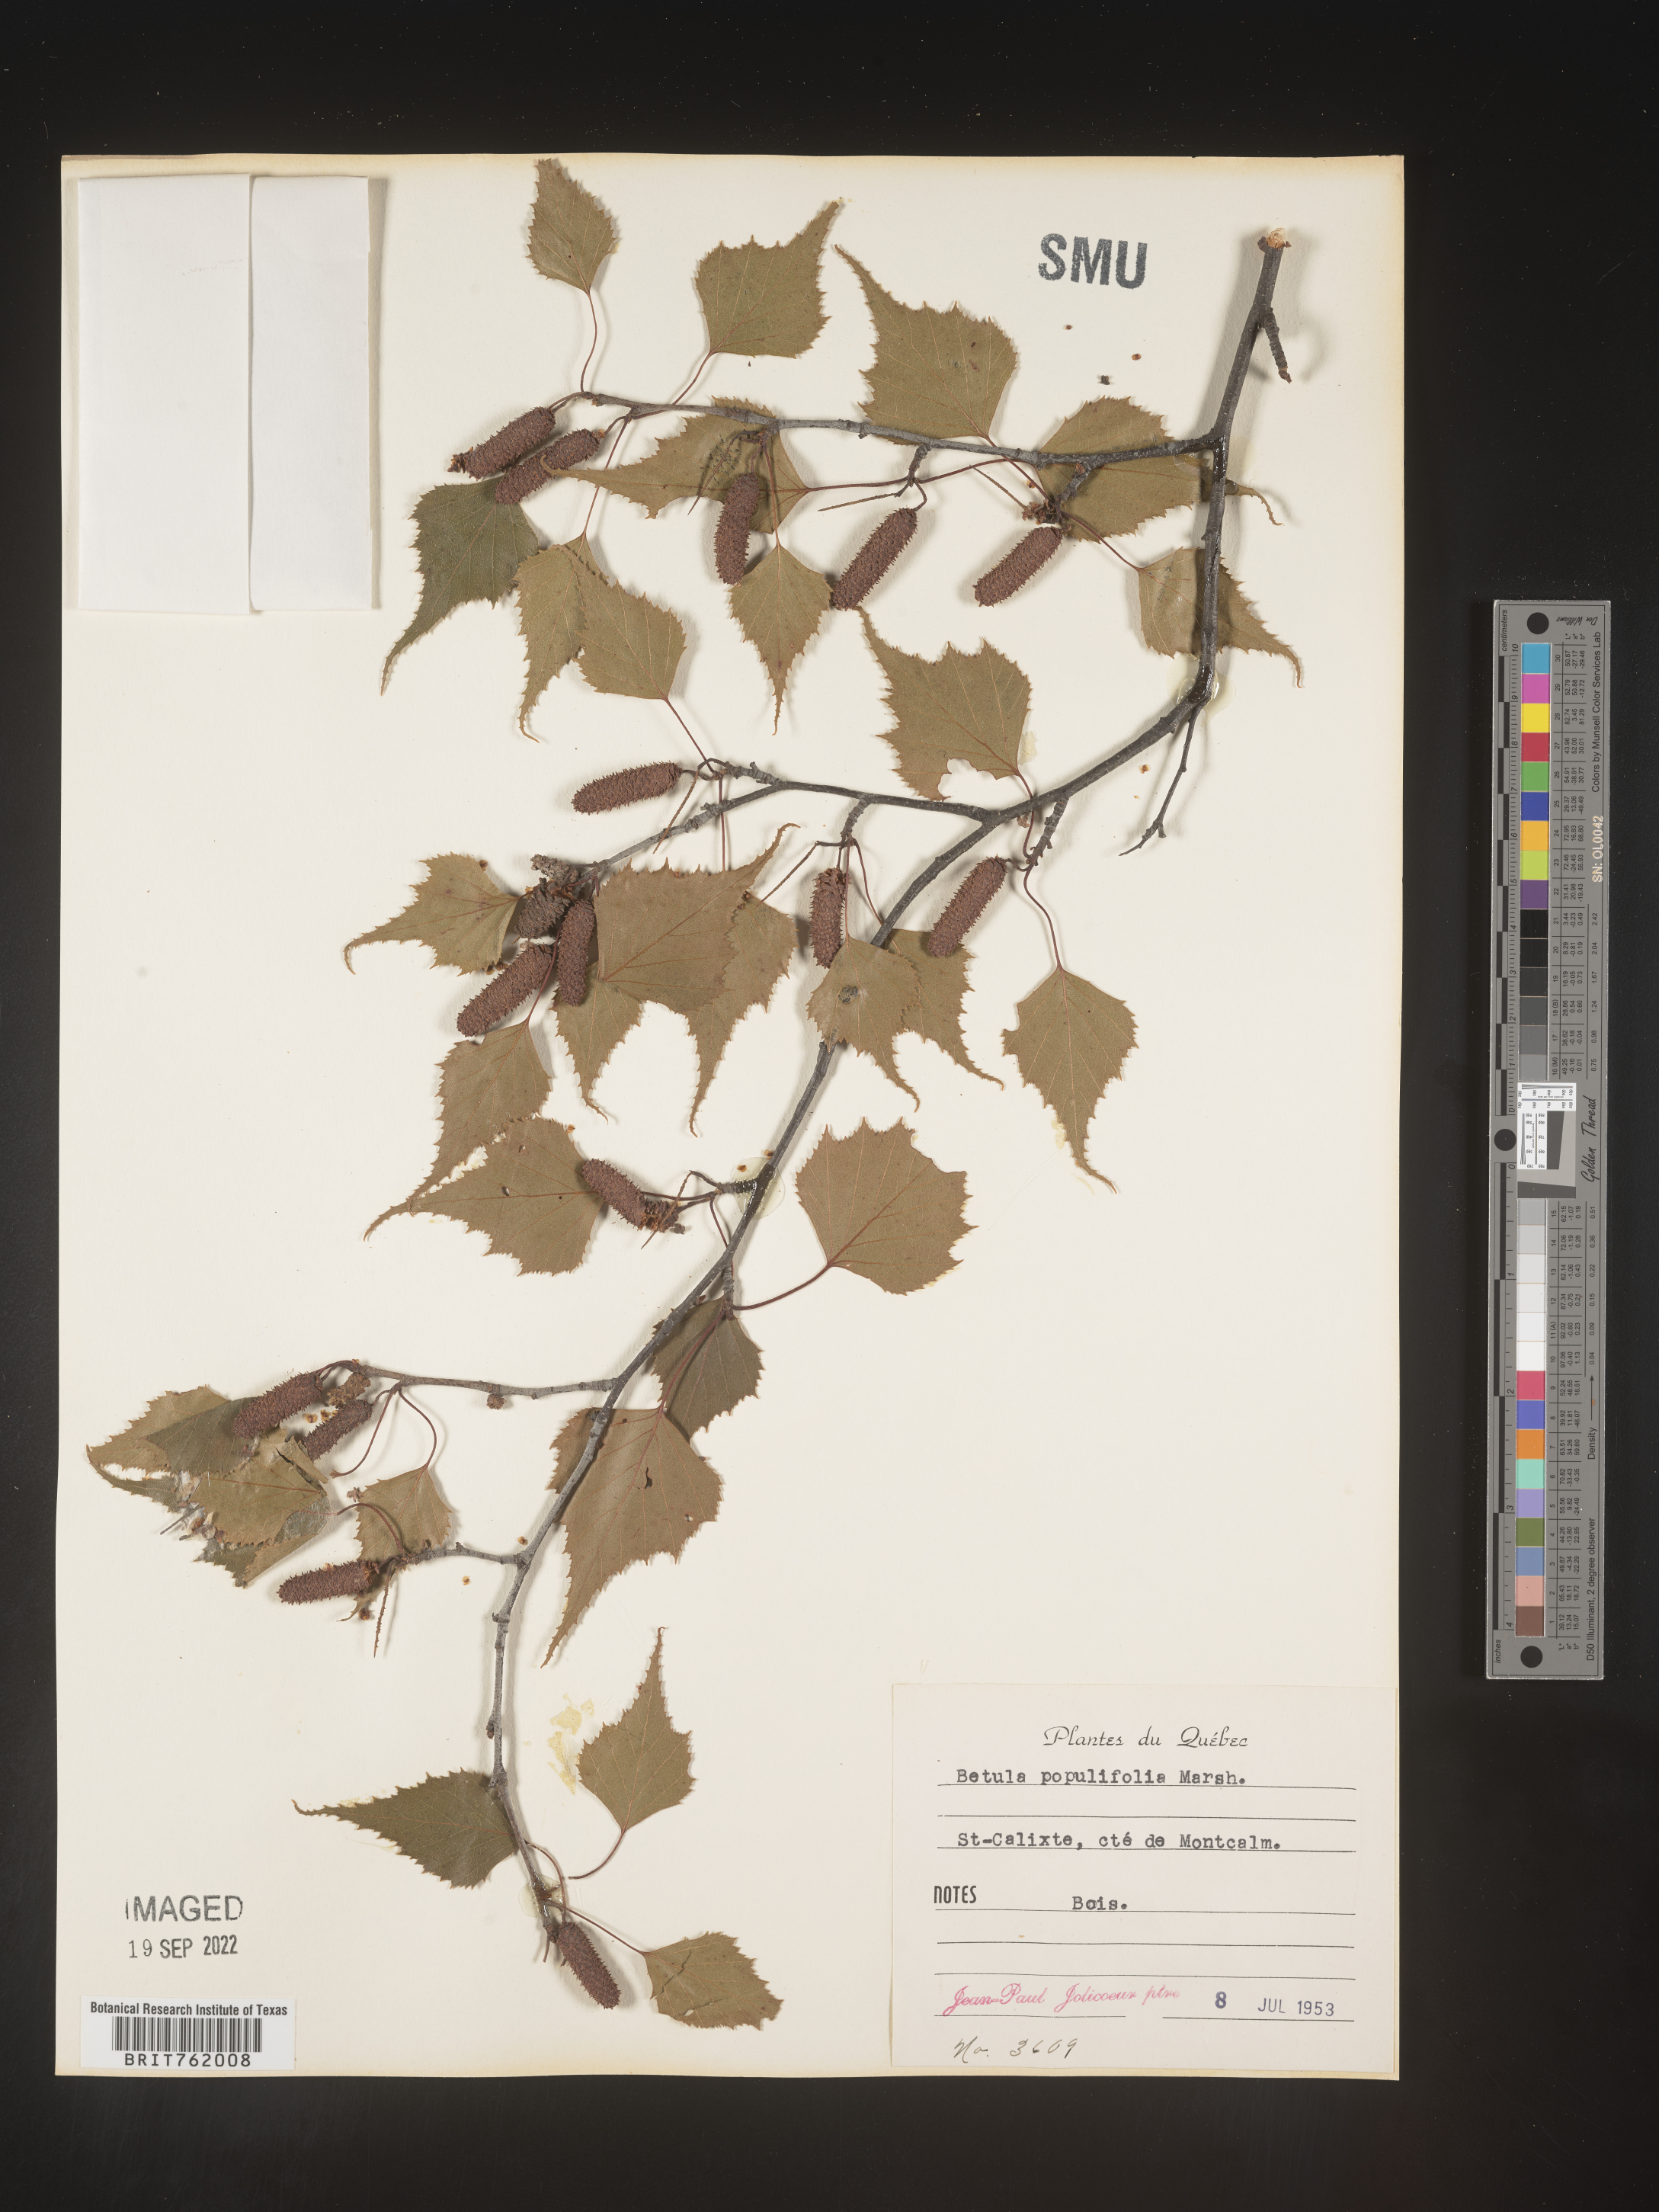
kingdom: Plantae
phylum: Tracheophyta
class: Magnoliopsida
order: Fagales
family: Betulaceae
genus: Betula
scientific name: Betula populifolia
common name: Fire birch
